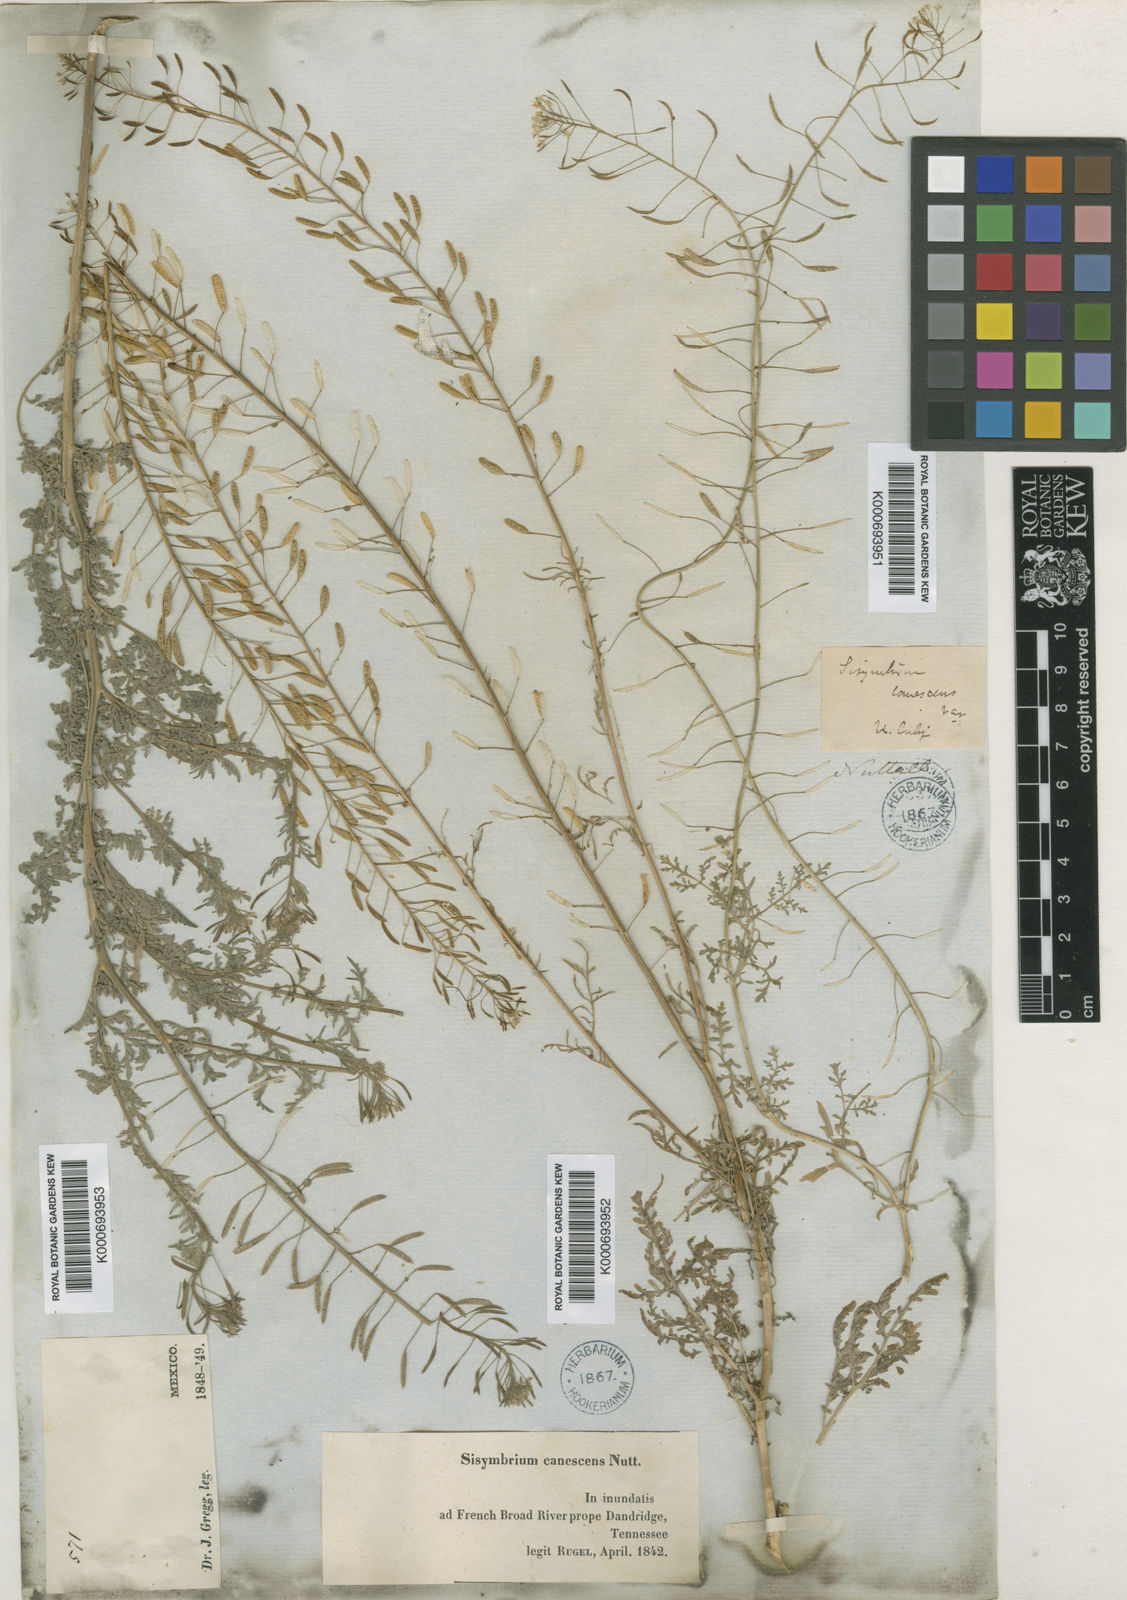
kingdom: Plantae
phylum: Tracheophyta
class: Magnoliopsida
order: Brassicales
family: Brassicaceae
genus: Descurainia
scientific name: Descurainia pinnata
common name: Western tansy mustard
